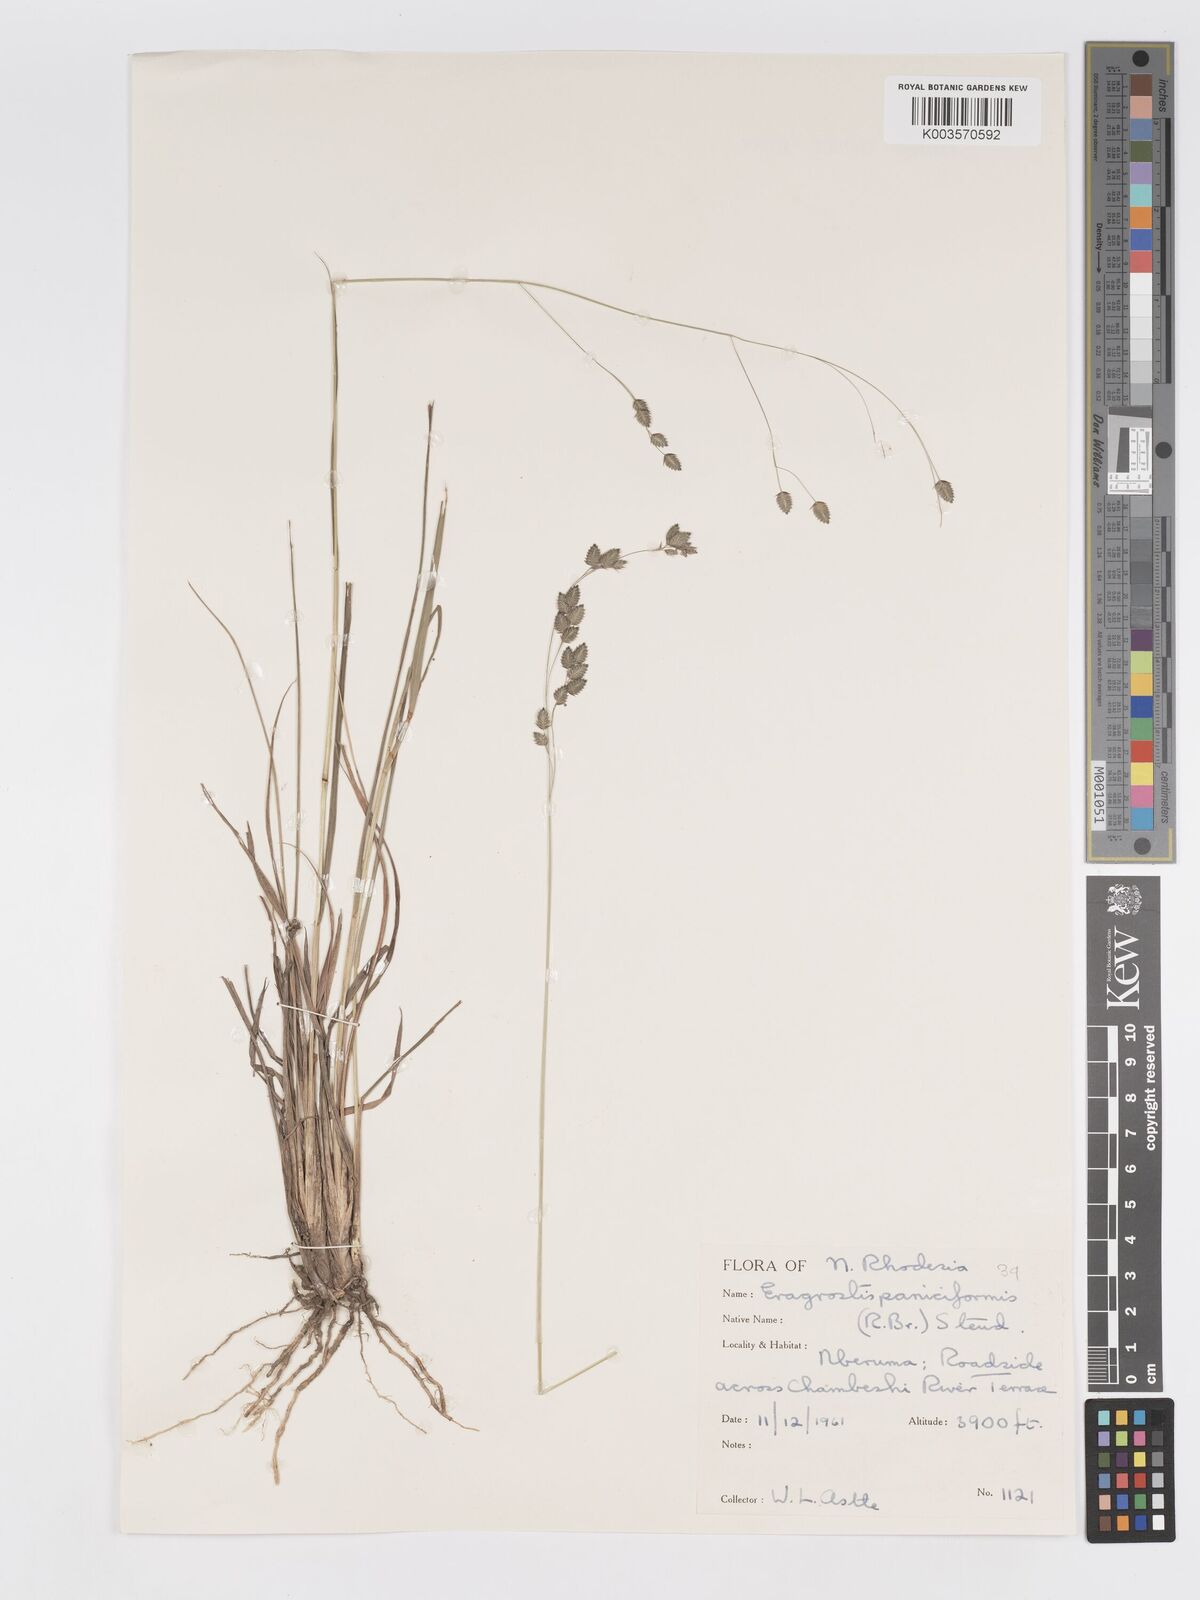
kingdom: Plantae
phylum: Tracheophyta
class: Liliopsida
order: Poales
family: Poaceae
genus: Eragrostis
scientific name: Eragrostis paniciformis
